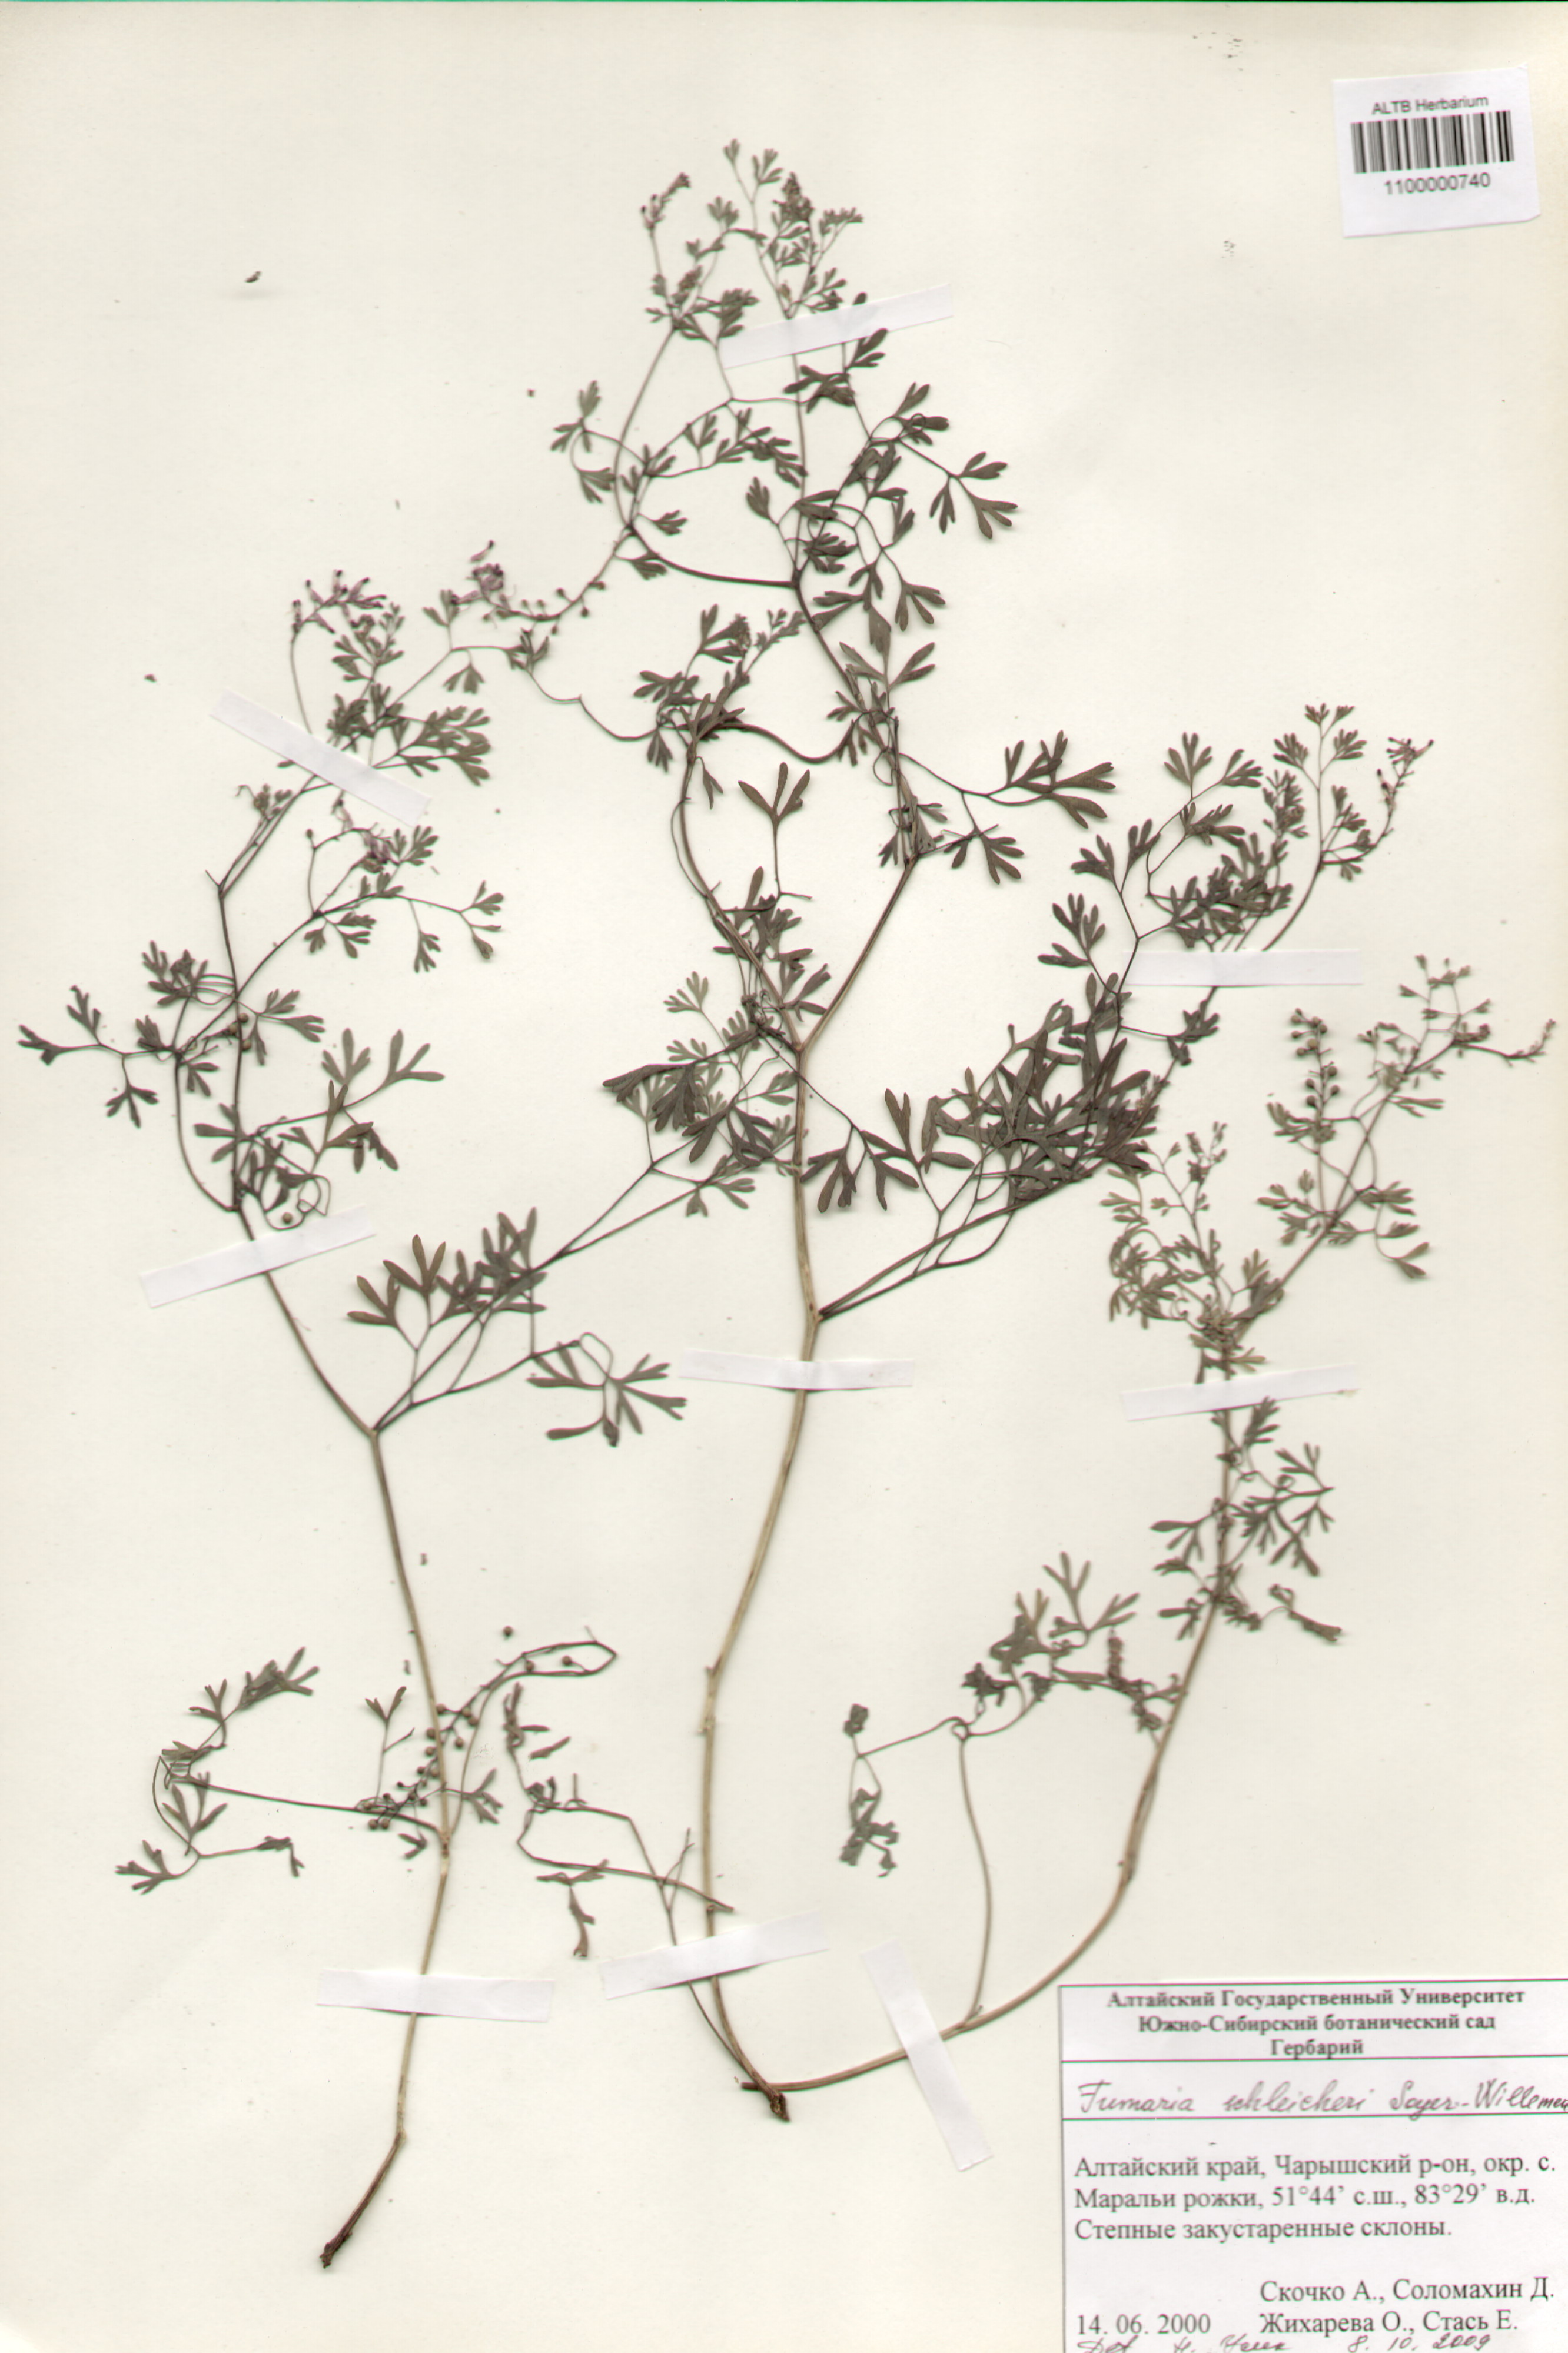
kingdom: Plantae
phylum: Tracheophyta
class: Magnoliopsida
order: Ranunculales
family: Papaveraceae
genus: Fumaria
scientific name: Fumaria schleicheri
